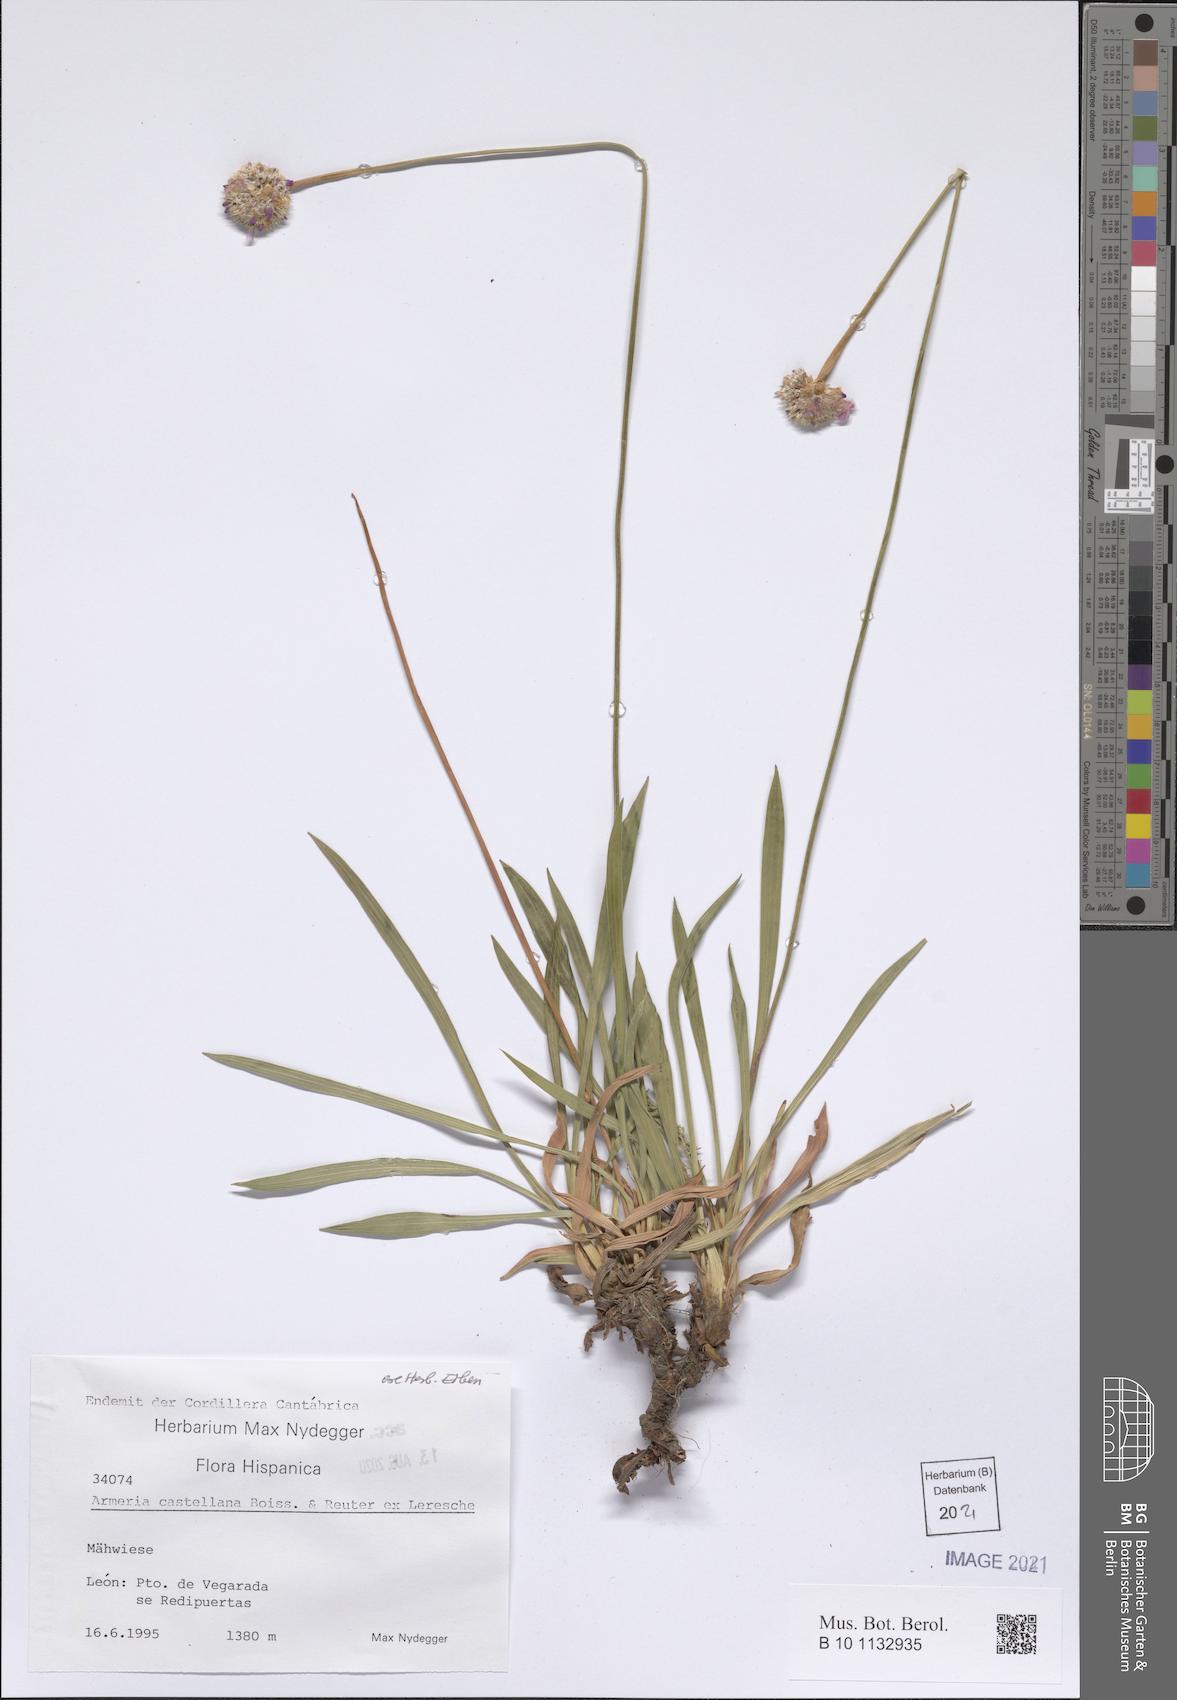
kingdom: Plantae
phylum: Tracheophyta
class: Magnoliopsida
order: Caryophyllales
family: Plumbaginaceae
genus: Armeria
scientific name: Armeria castellana
